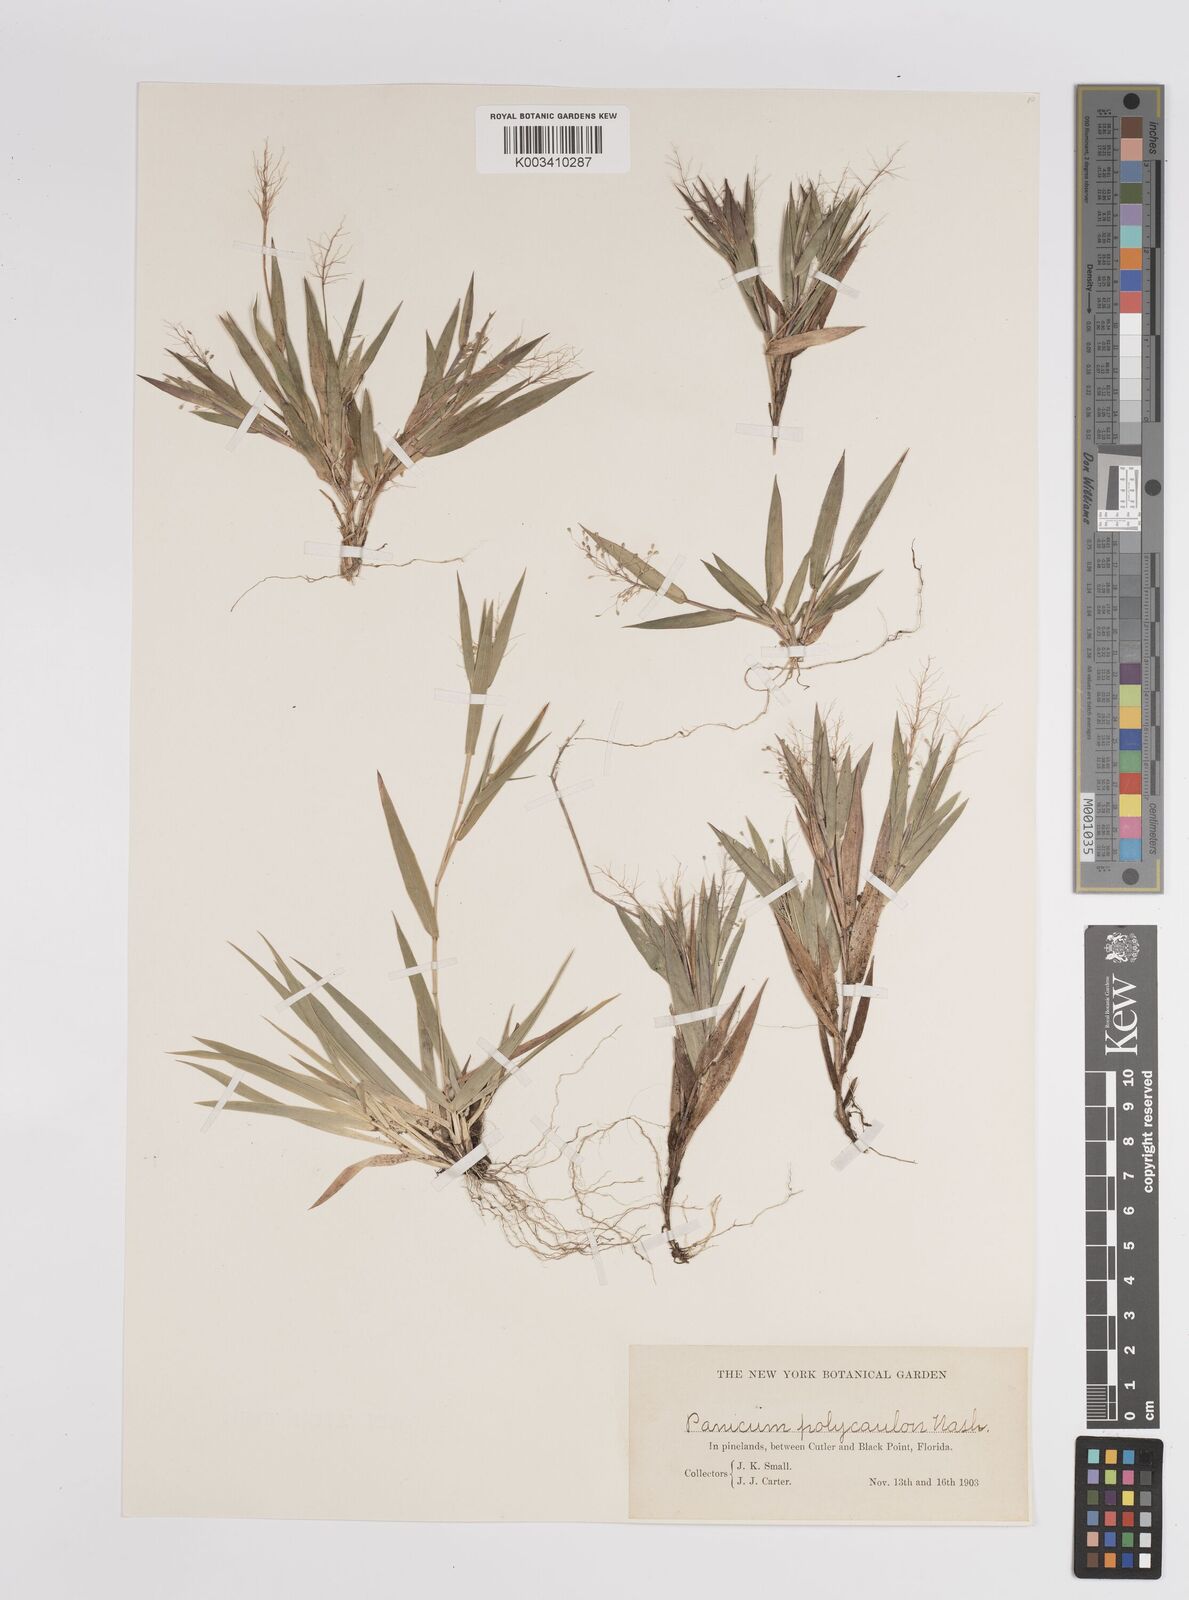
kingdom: Plantae
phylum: Tracheophyta
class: Liliopsida
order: Poales
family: Poaceae
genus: Dichanthelium
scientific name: Dichanthelium strigosum
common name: Cushion-tuft panic grass
